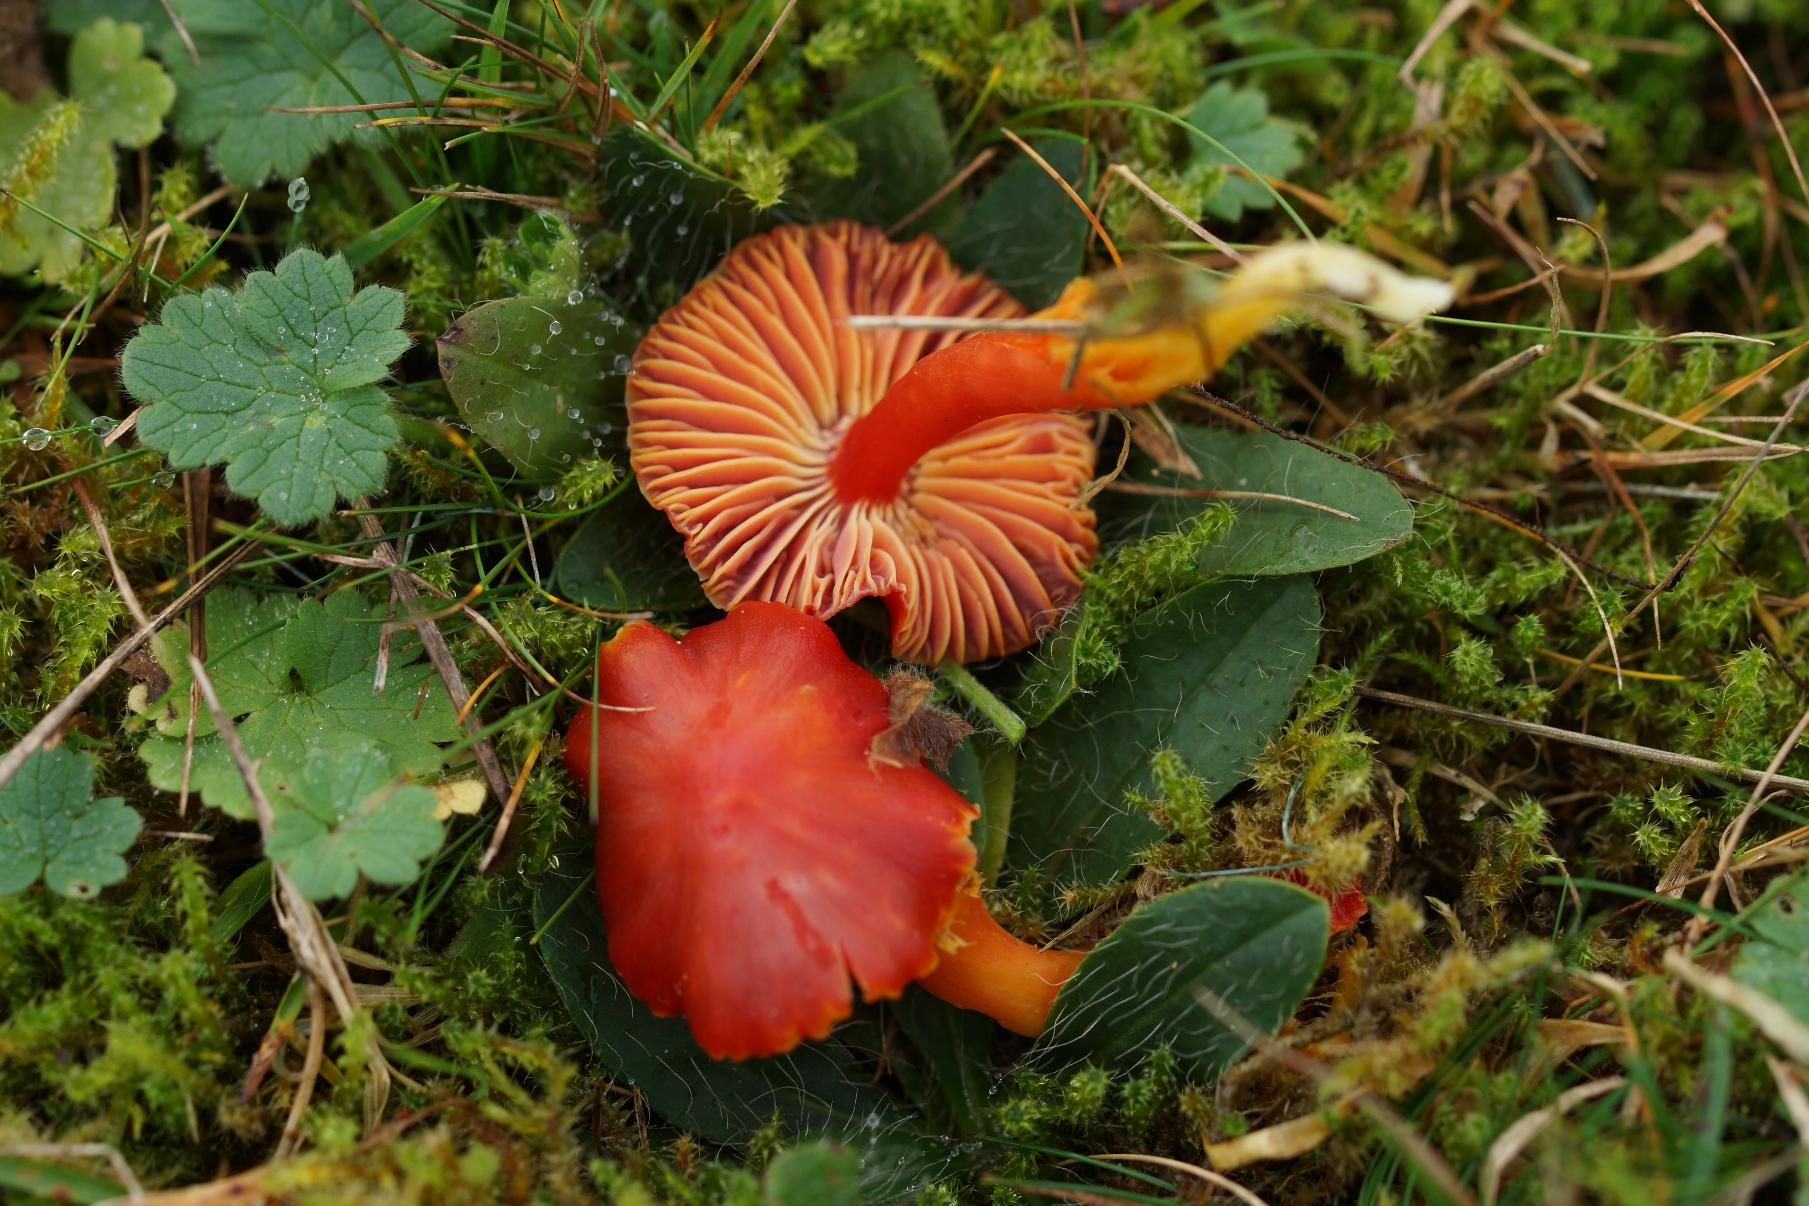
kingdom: Fungi
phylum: Basidiomycota
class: Agaricomycetes
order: Agaricales
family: Hygrophoraceae
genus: Hygrocybe
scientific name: Hygrocybe coccinea
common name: Cinnober-vokshat
